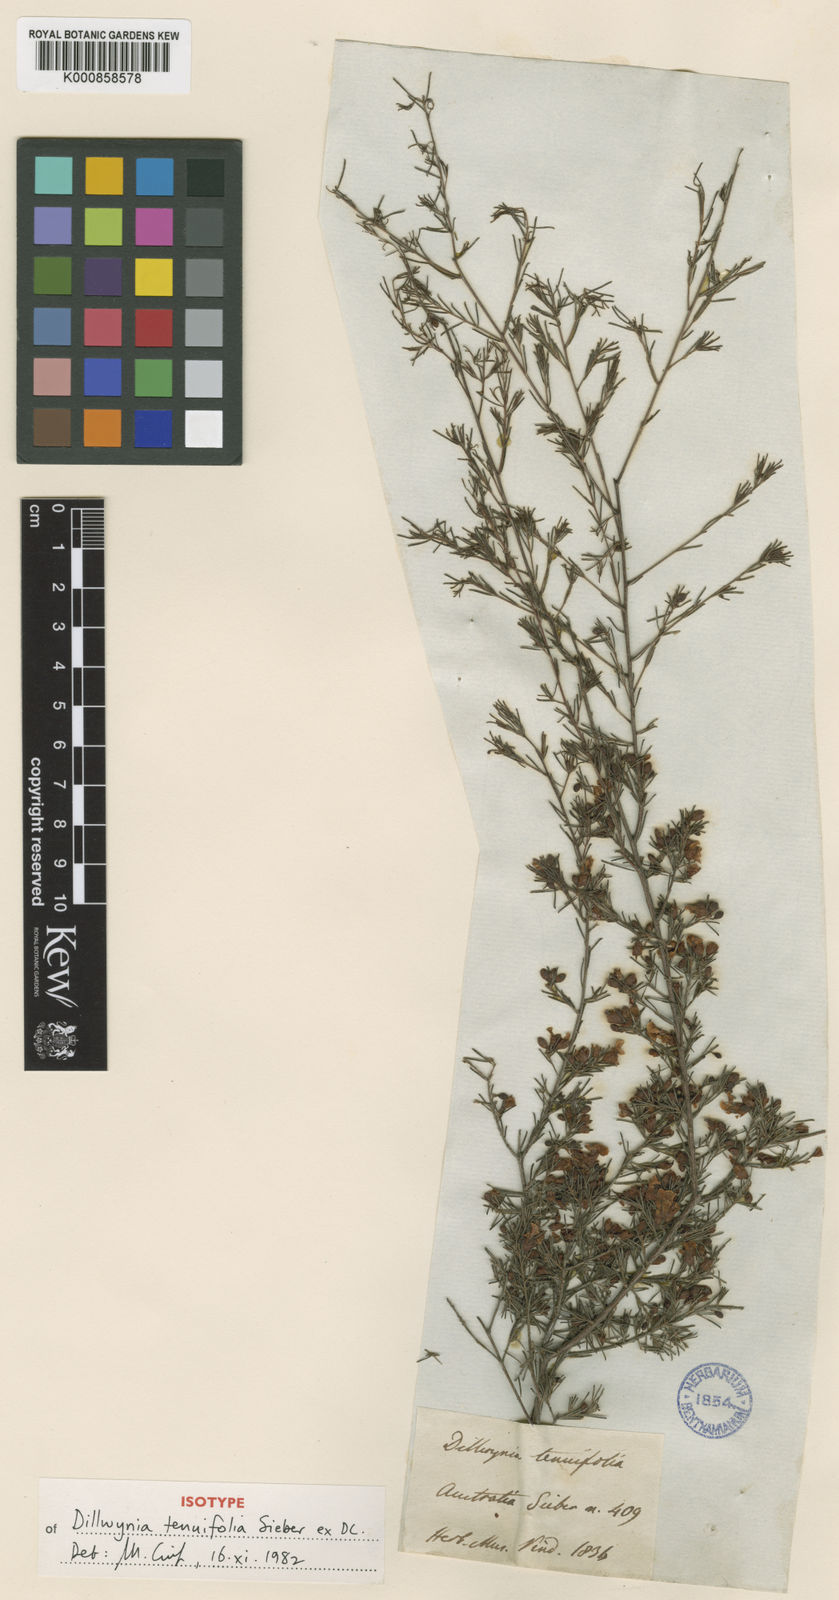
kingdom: Plantae
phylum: Tracheophyta
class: Magnoliopsida
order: Fabales
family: Fabaceae
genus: Dillwynia
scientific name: Dillwynia tenuifolia
